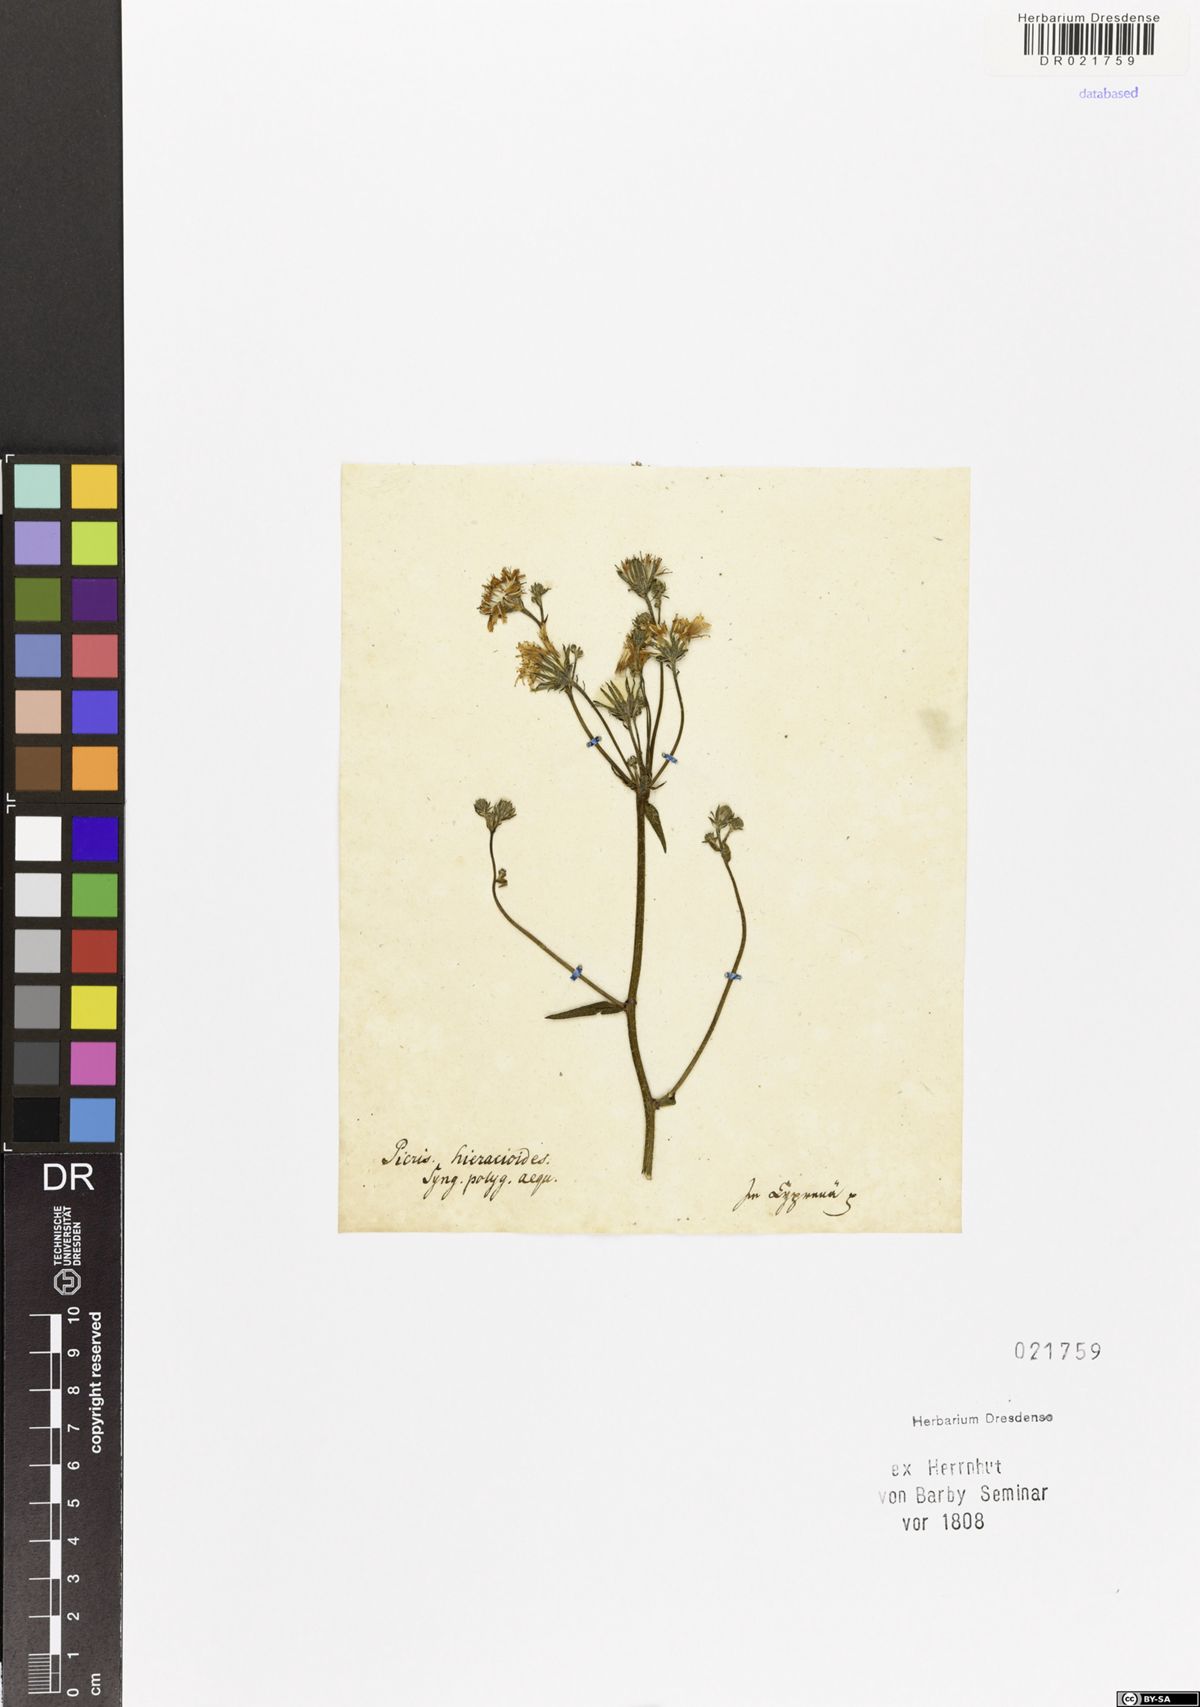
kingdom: Plantae
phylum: Tracheophyta
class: Magnoliopsida
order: Asterales
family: Asteraceae
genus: Picris
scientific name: Picris hieracioides
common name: Hawkweed oxtongue
